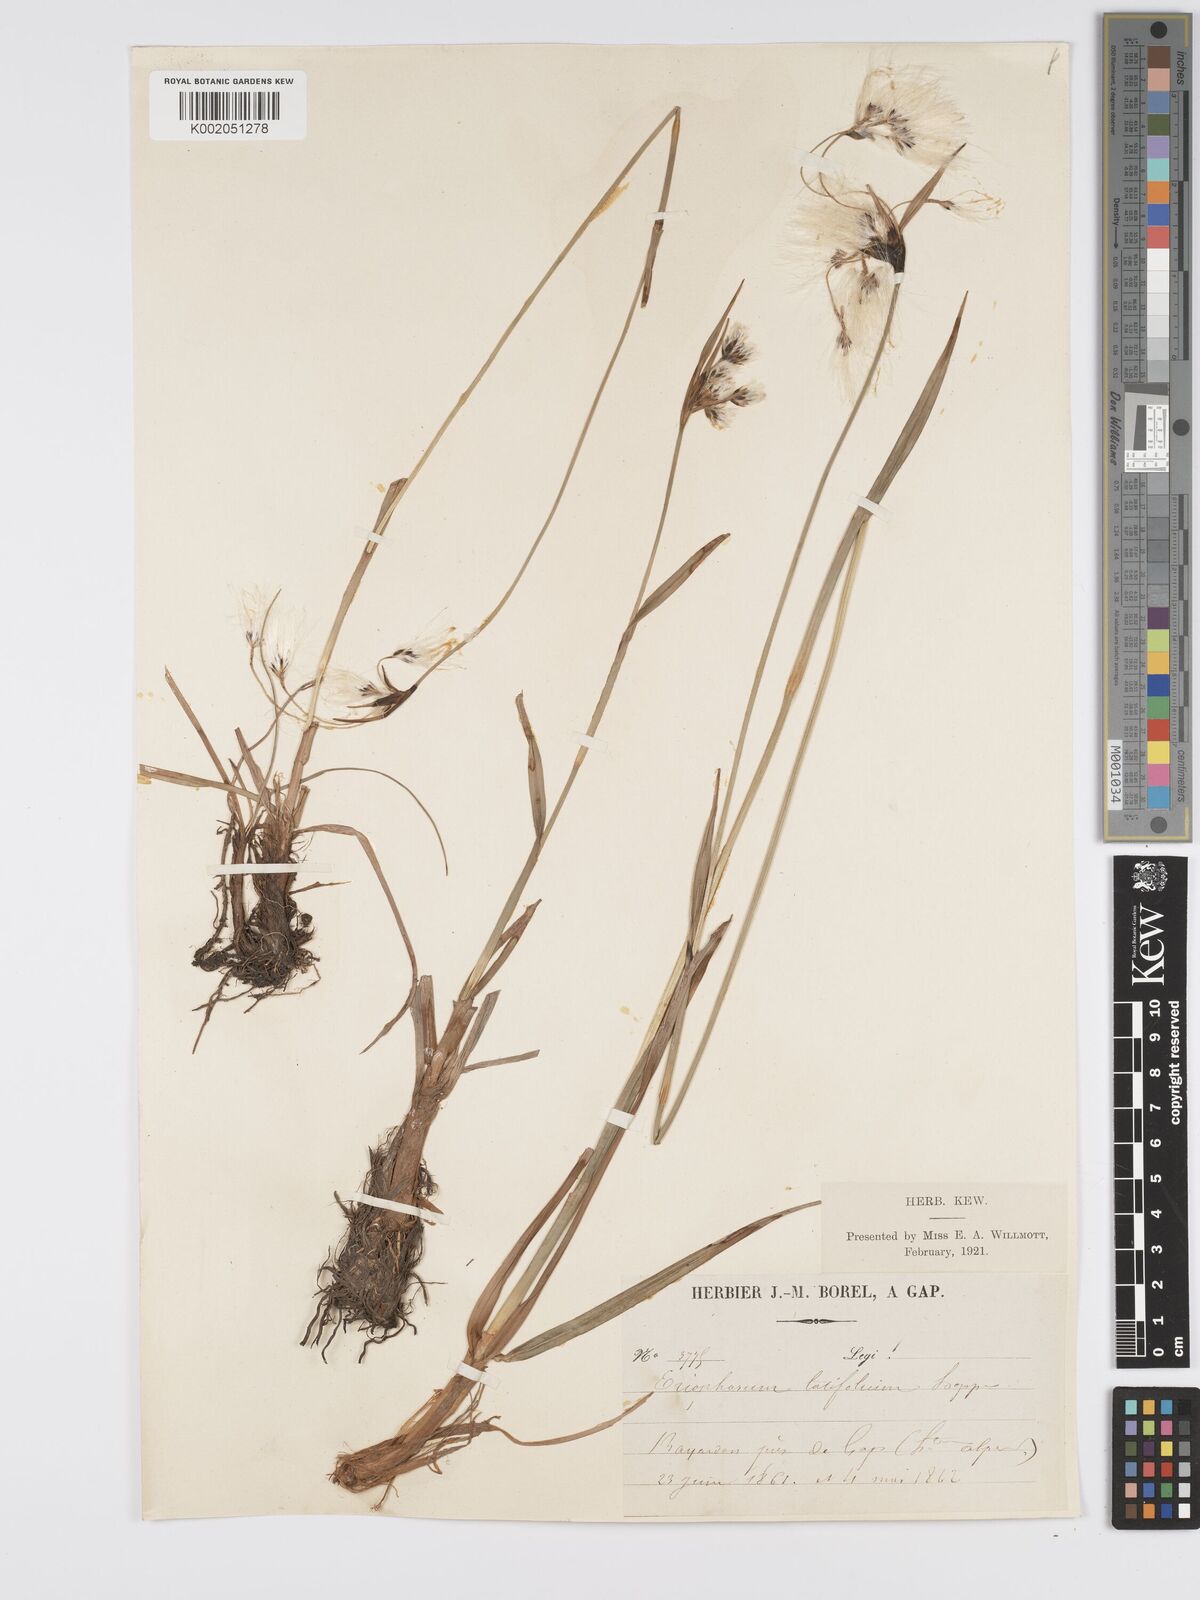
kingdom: Plantae
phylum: Tracheophyta
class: Liliopsida
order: Poales
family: Cyperaceae
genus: Eriophorum
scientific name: Eriophorum latifolium
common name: Broad-leaved cottongrass
